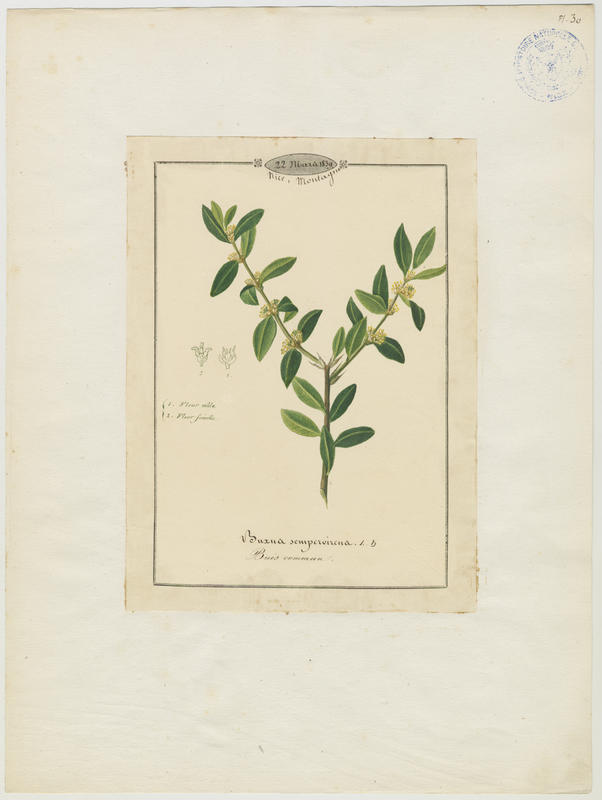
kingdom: Plantae
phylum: Tracheophyta
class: Magnoliopsida
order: Buxales
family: Buxaceae
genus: Buxus
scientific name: Buxus sempervirens
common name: Box
